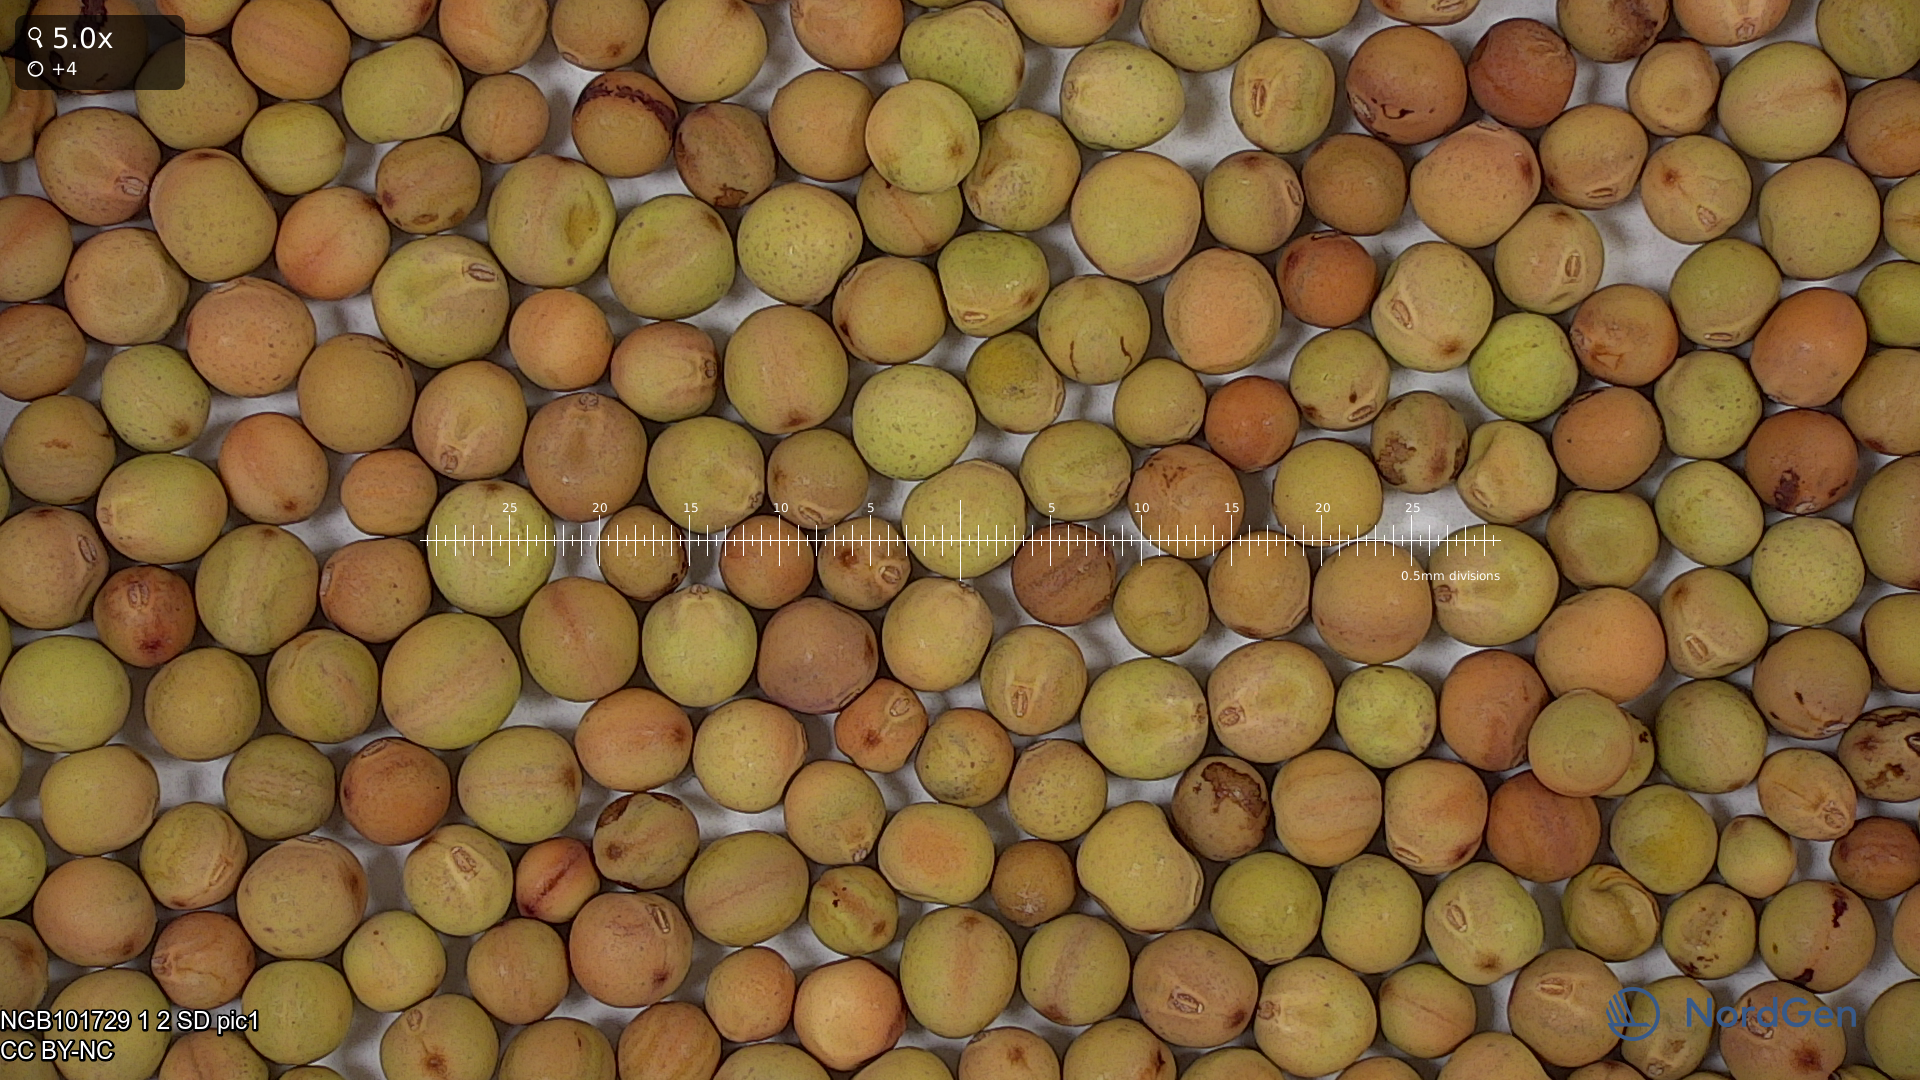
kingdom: Plantae
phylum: Tracheophyta
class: Magnoliopsida
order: Fabales
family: Fabaceae
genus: Lathyrus
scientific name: Lathyrus oleraceus
